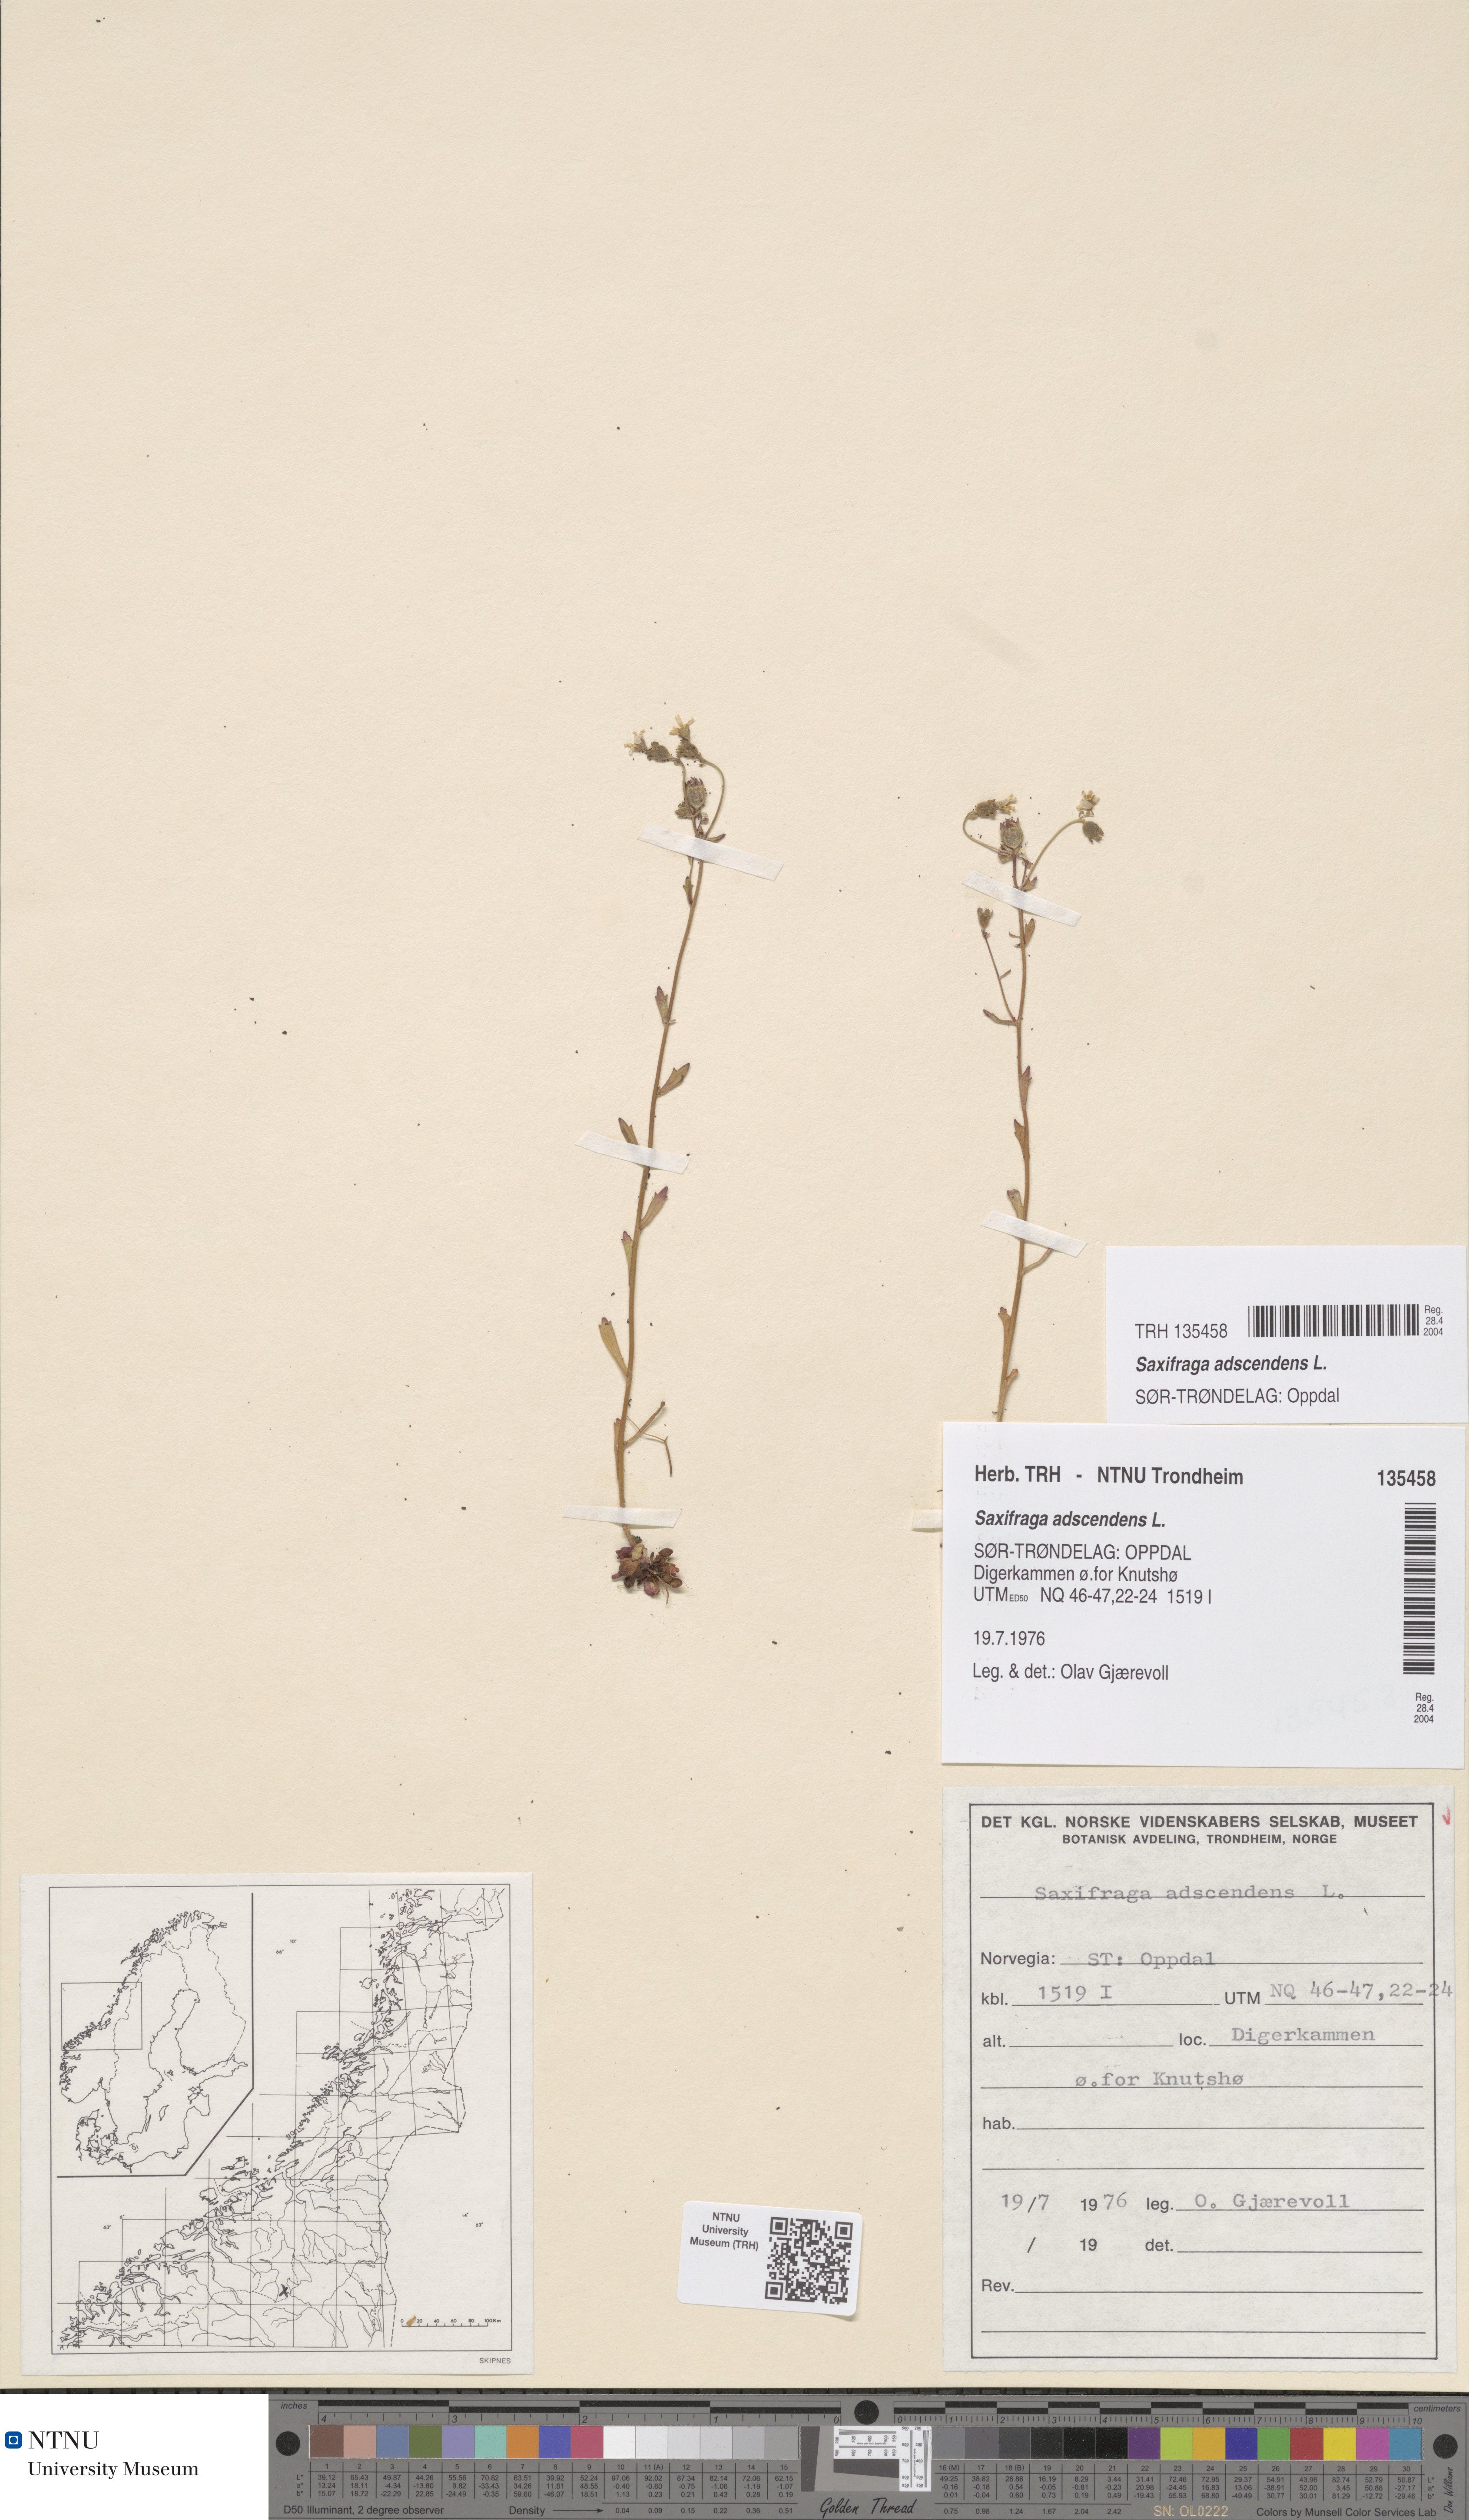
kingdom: Plantae
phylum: Tracheophyta
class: Magnoliopsida
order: Saxifragales
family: Saxifragaceae
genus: Saxifraga
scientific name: Saxifraga adscendens
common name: Ascending saxifrage
